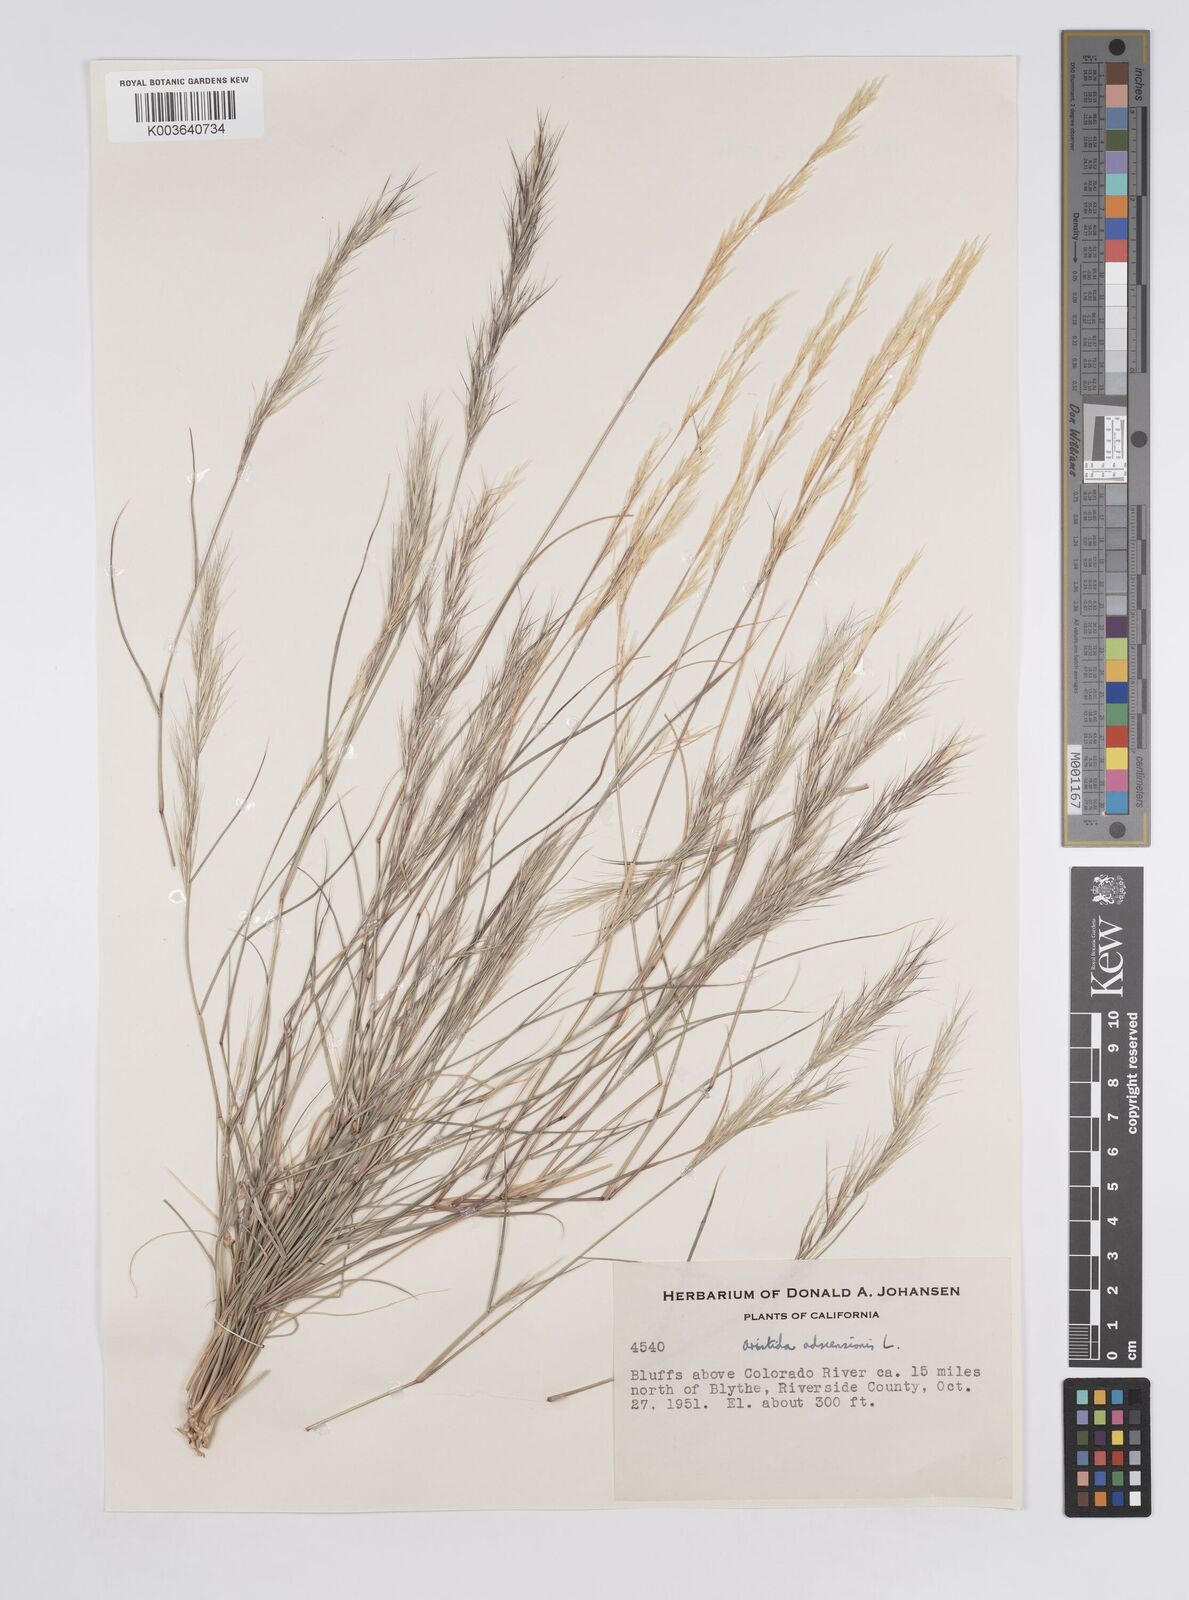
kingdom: Plantae
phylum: Tracheophyta
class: Liliopsida
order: Poales
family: Poaceae
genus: Aristida
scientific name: Aristida adscensionis
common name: Sixweeks threeawn
